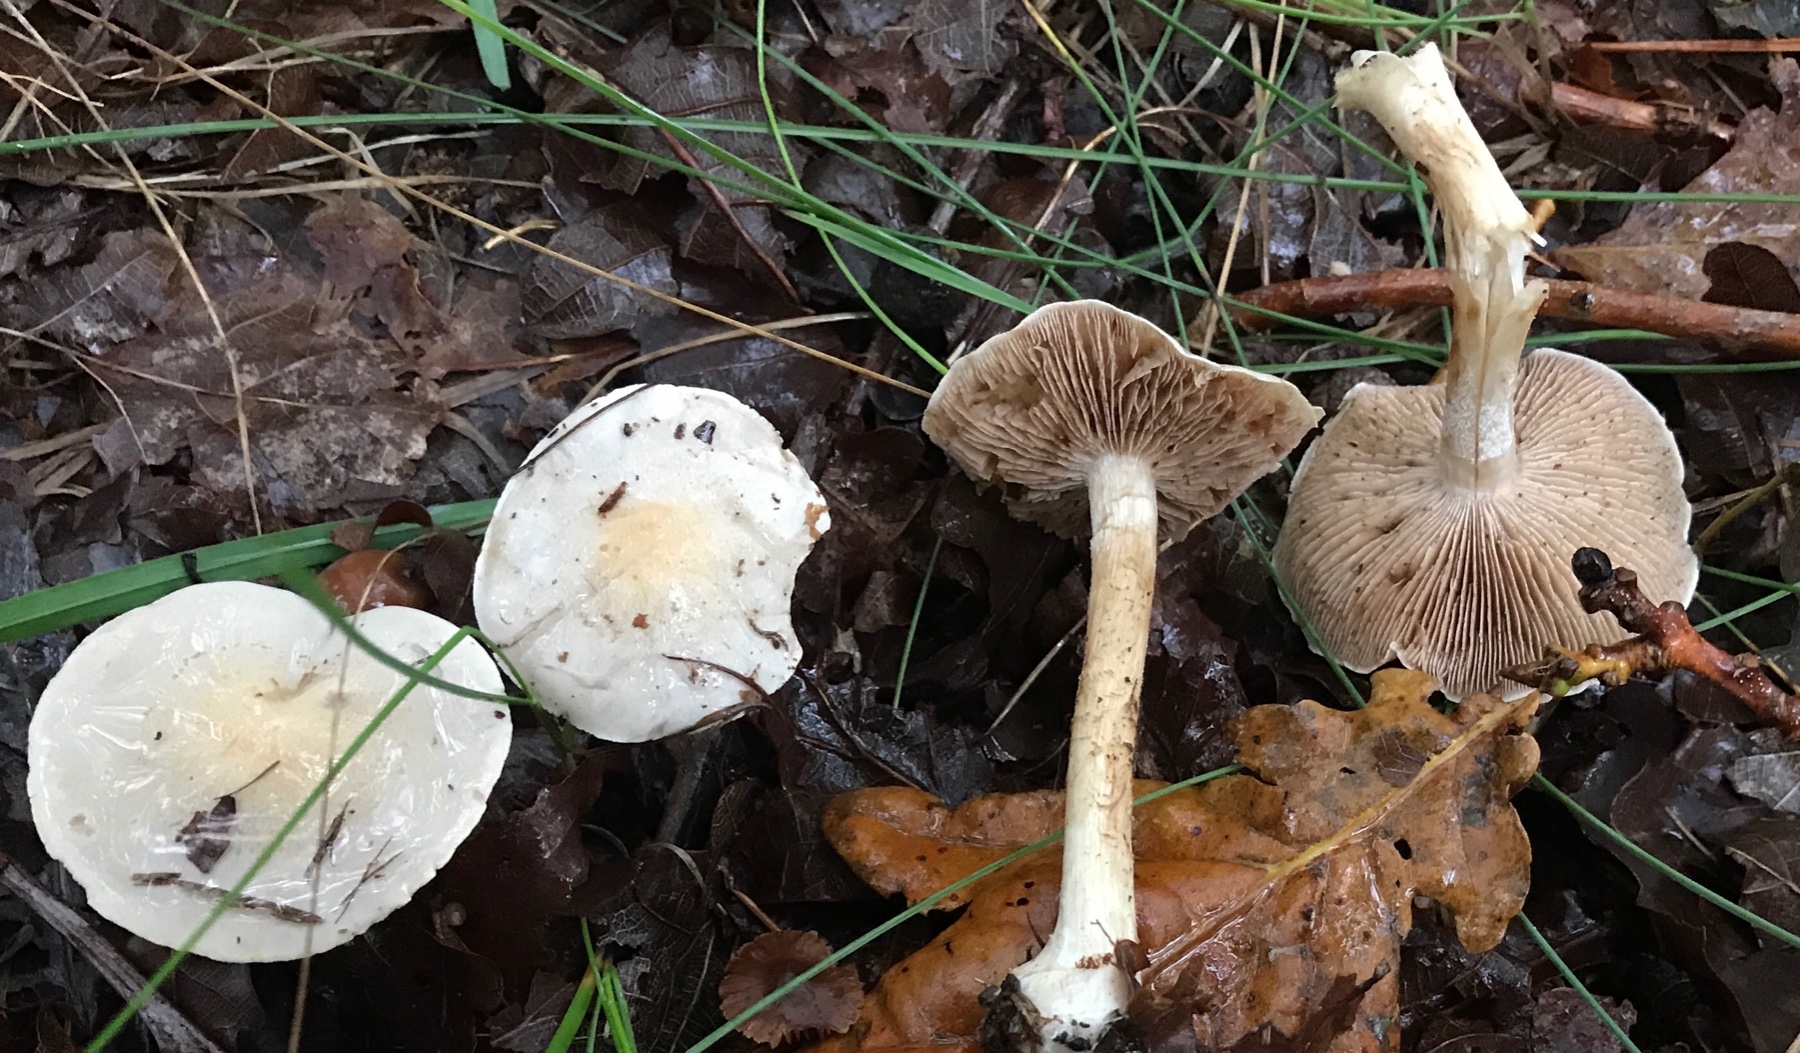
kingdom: Fungi
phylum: Basidiomycota
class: Agaricomycetes
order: Agaricales
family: Hymenogastraceae
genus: Hebeloma
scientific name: Hebeloma
